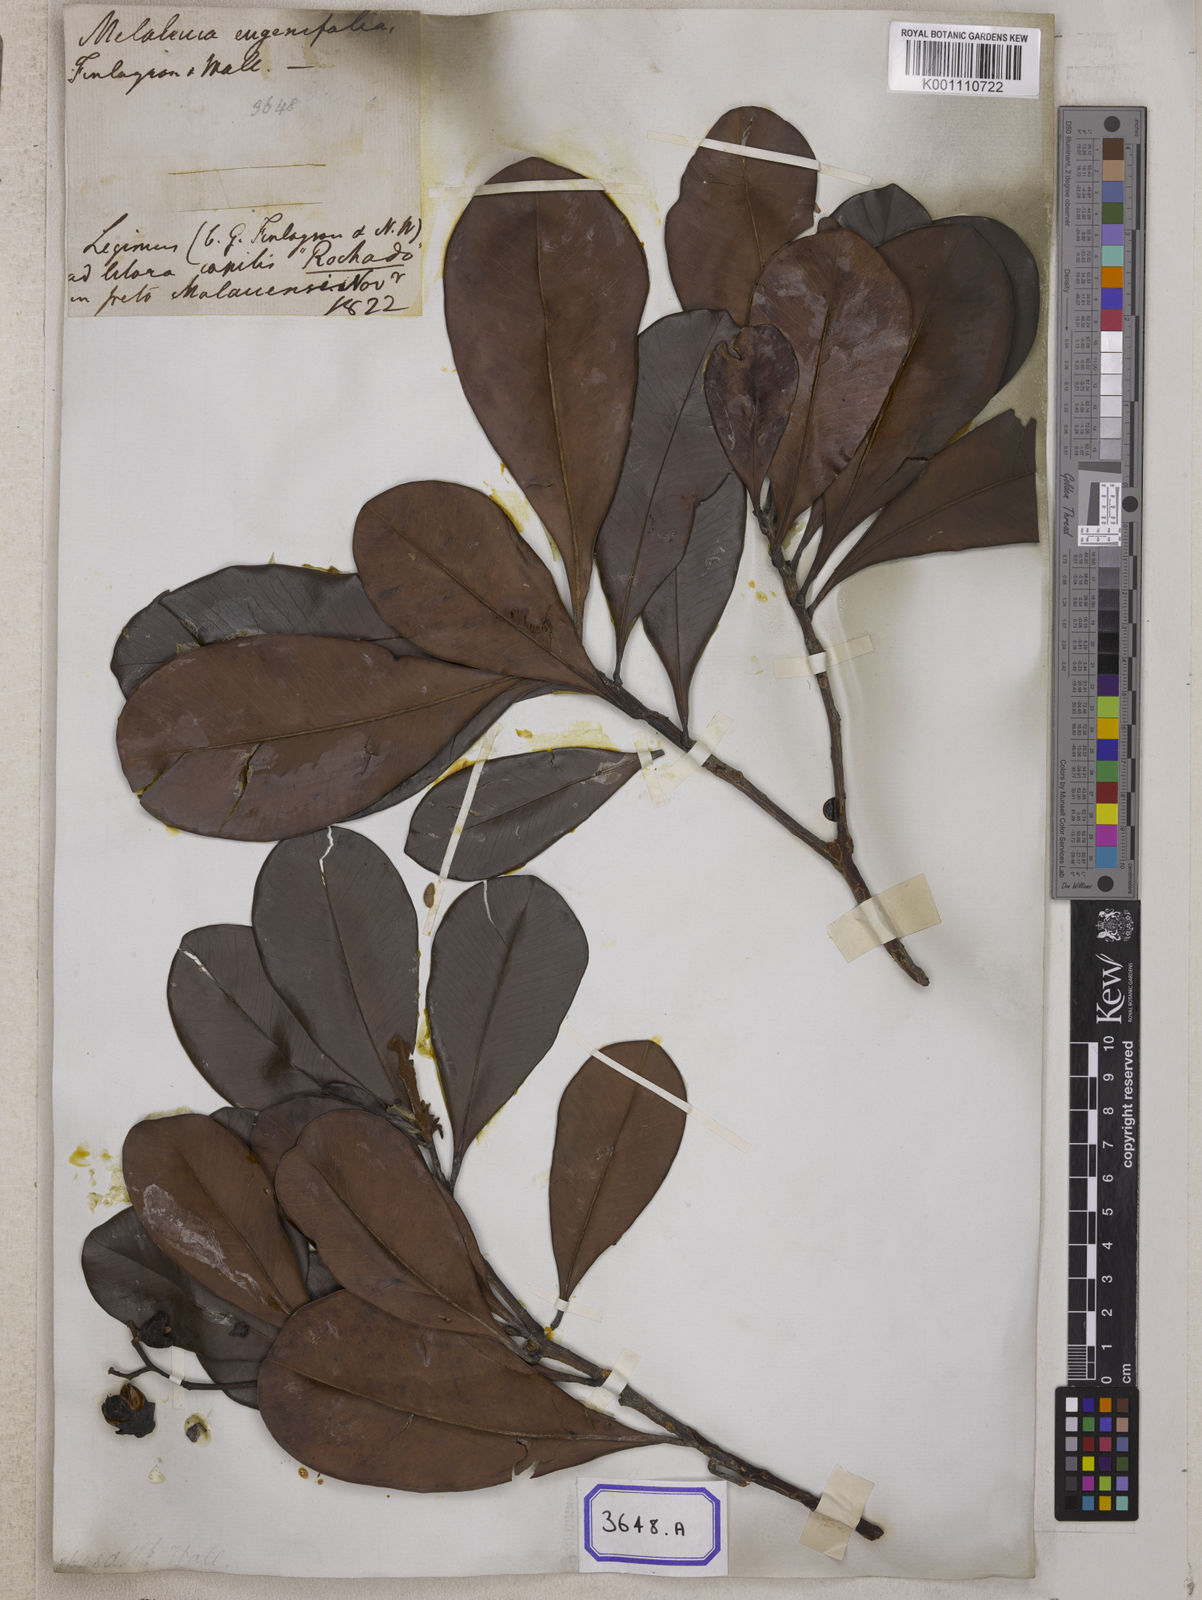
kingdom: Plantae
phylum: Tracheophyta
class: Magnoliopsida
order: Myrtales
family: Myrtaceae
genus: Melaleuca
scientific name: Melaleuca
